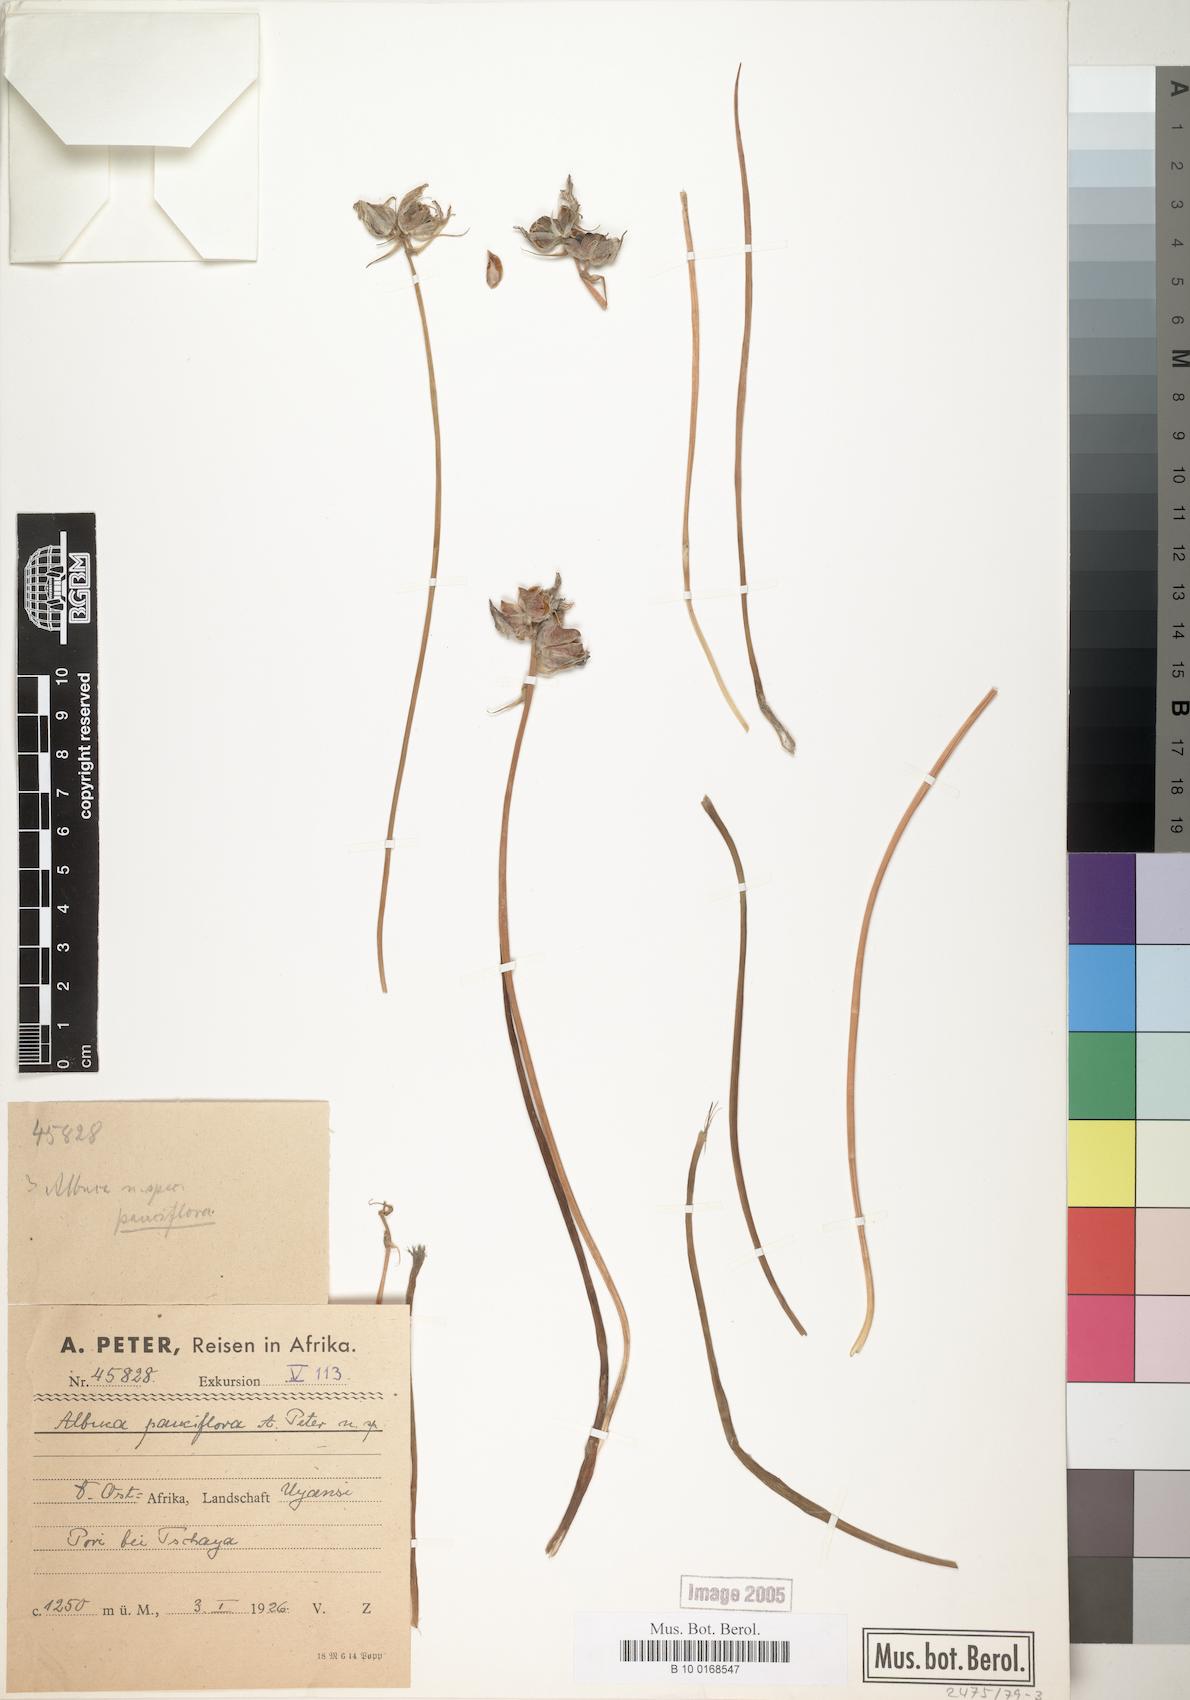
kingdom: Plantae
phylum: Tracheophyta
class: Liliopsida
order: Asparagales
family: Asparagaceae
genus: Albuca
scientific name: Albuca
